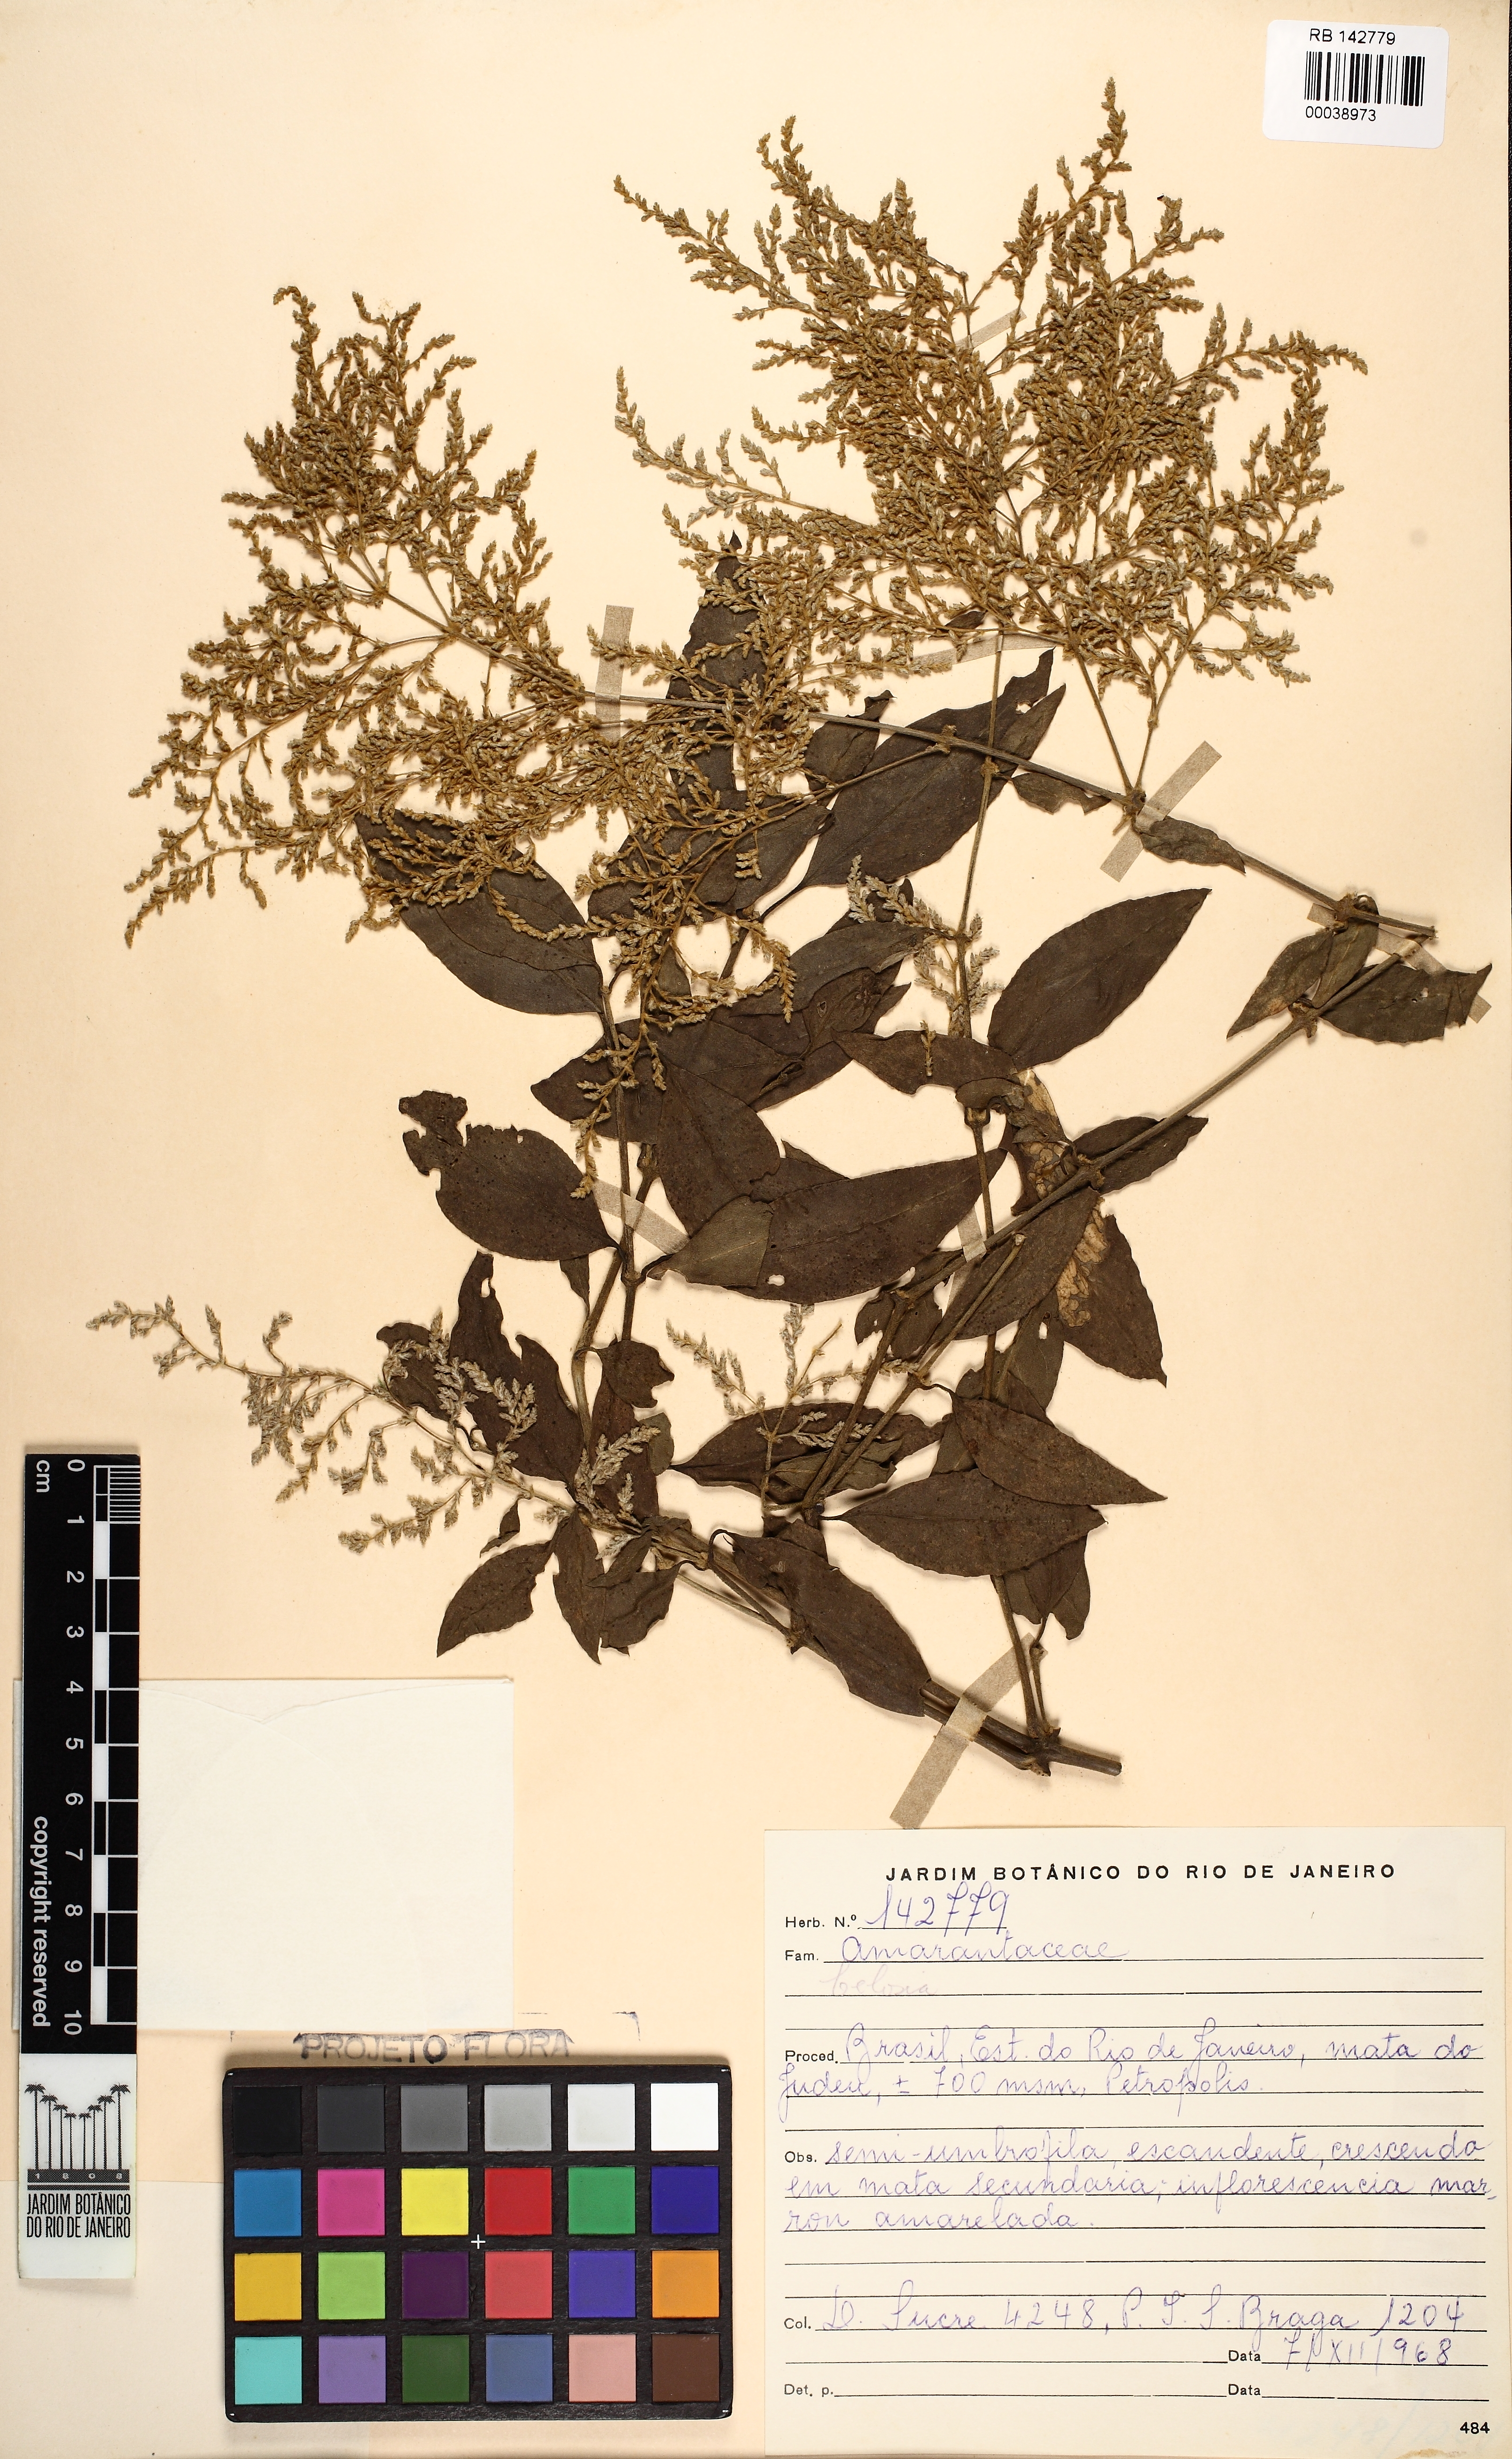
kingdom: Plantae
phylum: Tracheophyta
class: Magnoliopsida
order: Caryophyllales
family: Amaranthaceae
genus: Celosia
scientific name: Celosia
